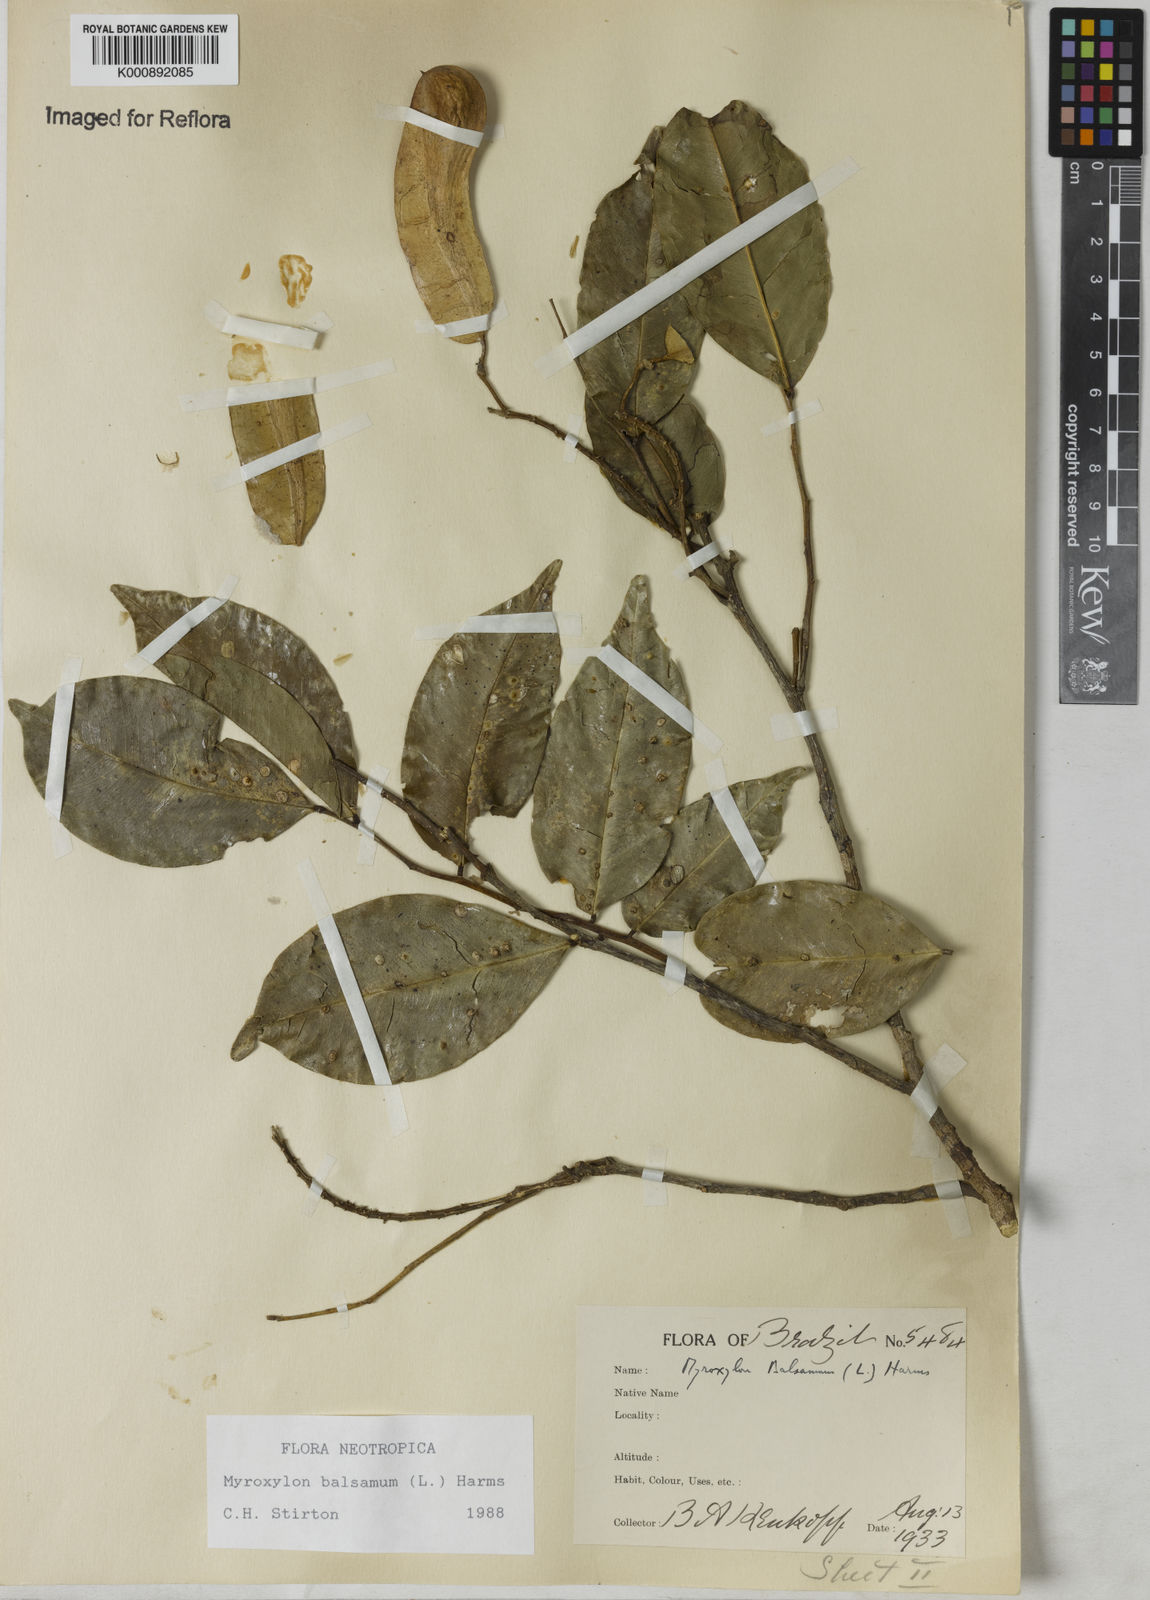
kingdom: Plantae
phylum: Tracheophyta
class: Magnoliopsida
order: Fabales
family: Fabaceae
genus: Myroxylon
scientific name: Myroxylon balsamum
